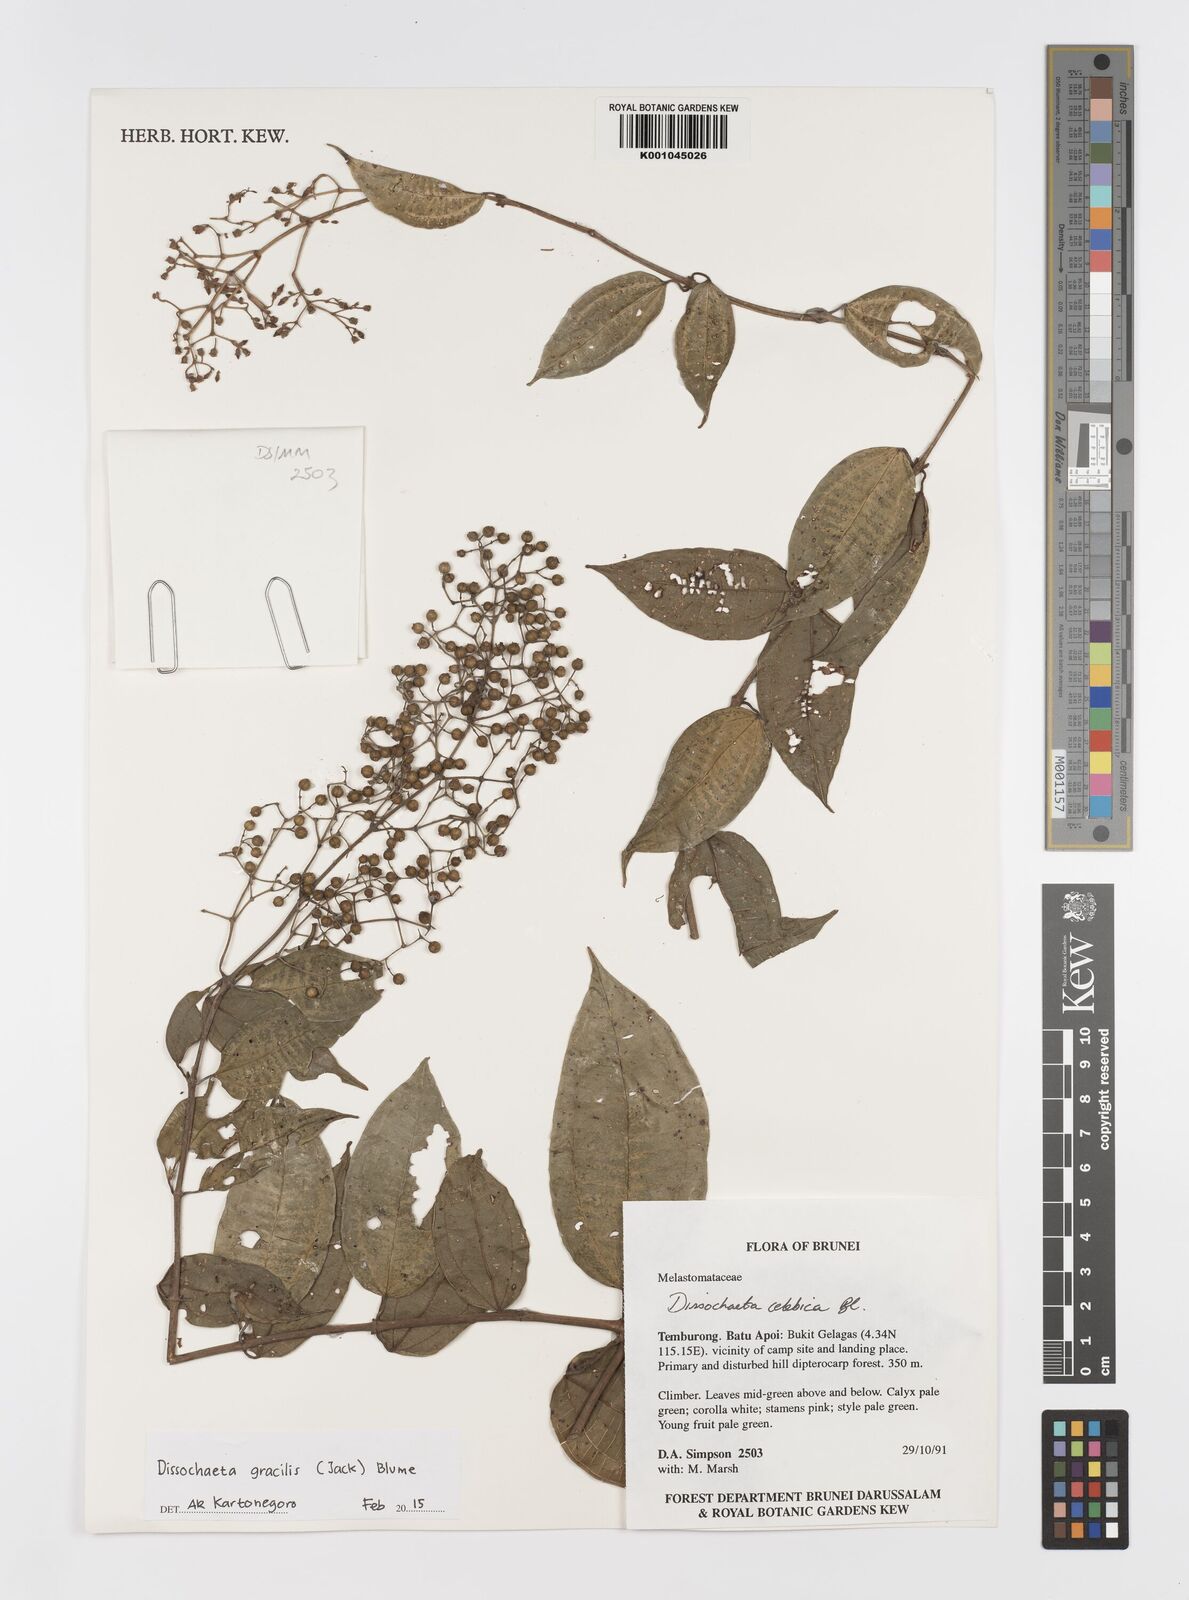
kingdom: Plantae
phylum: Tracheophyta
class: Magnoliopsida
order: Myrtales
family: Melastomataceae
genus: Dissochaeta
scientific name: Dissochaeta gracilis
